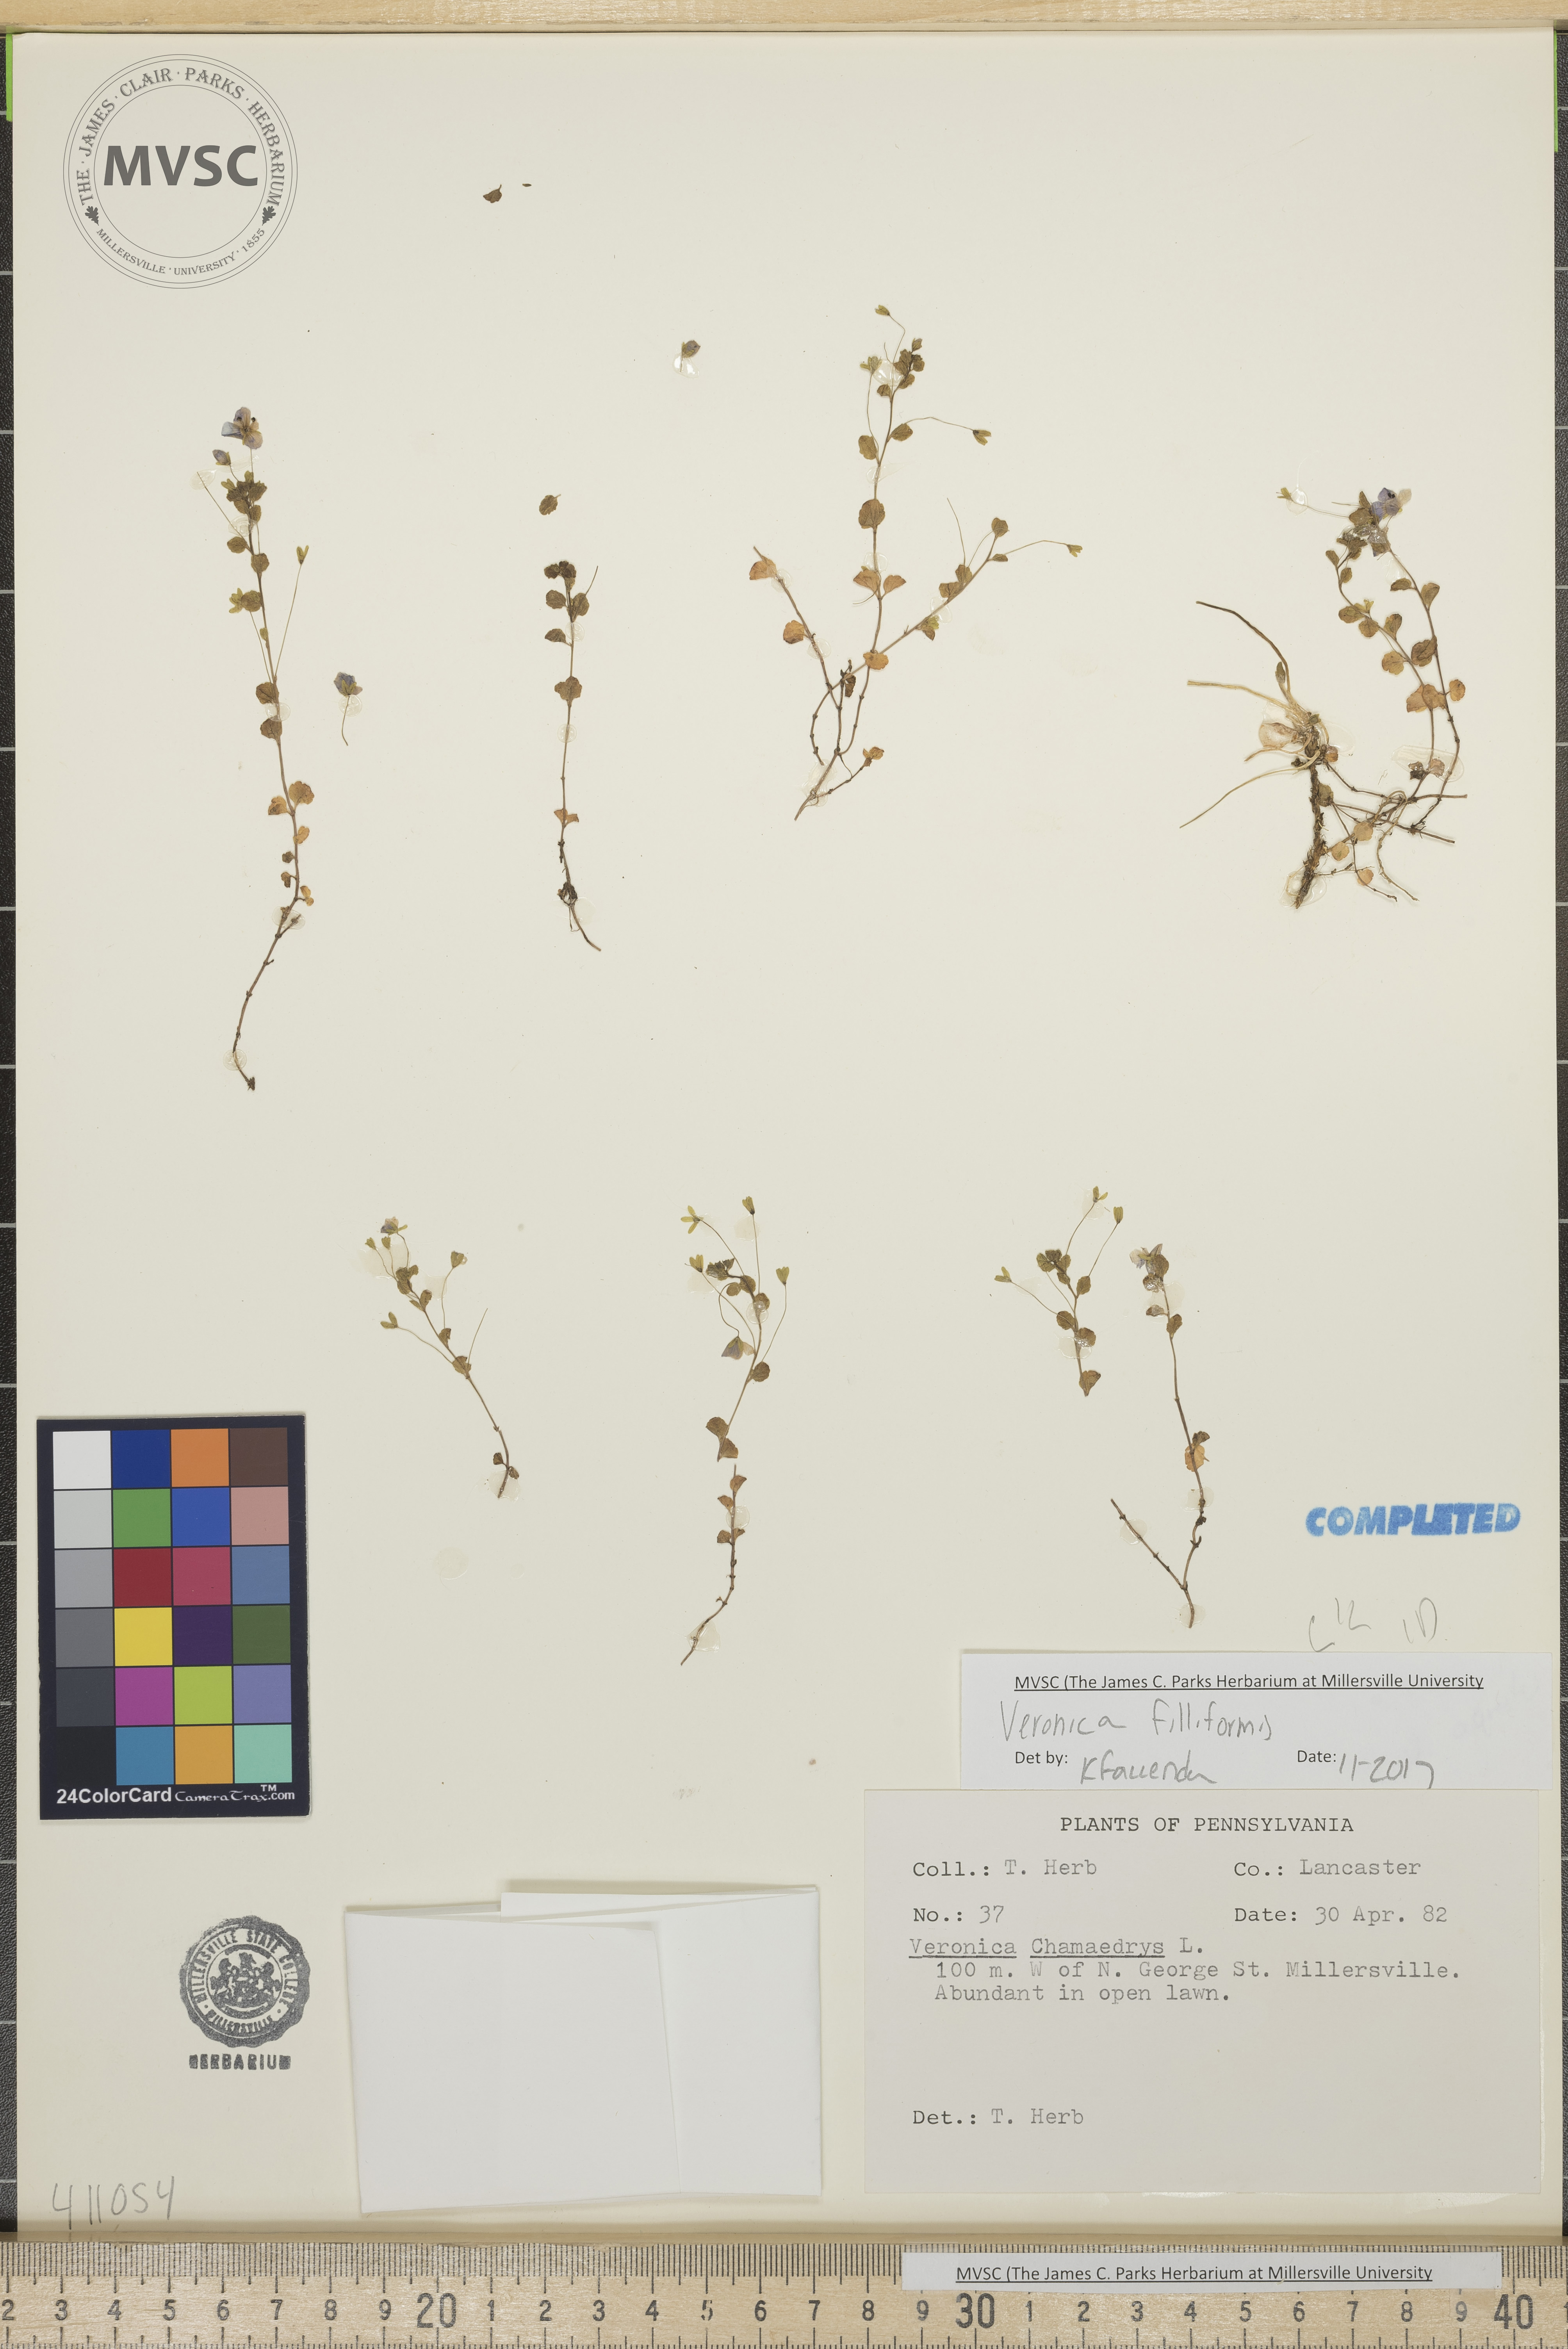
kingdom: Plantae
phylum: Tracheophyta
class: Magnoliopsida
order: Lamiales
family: Plantaginaceae
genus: Veronica
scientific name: Veronica filiformis
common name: Slender speedwell
